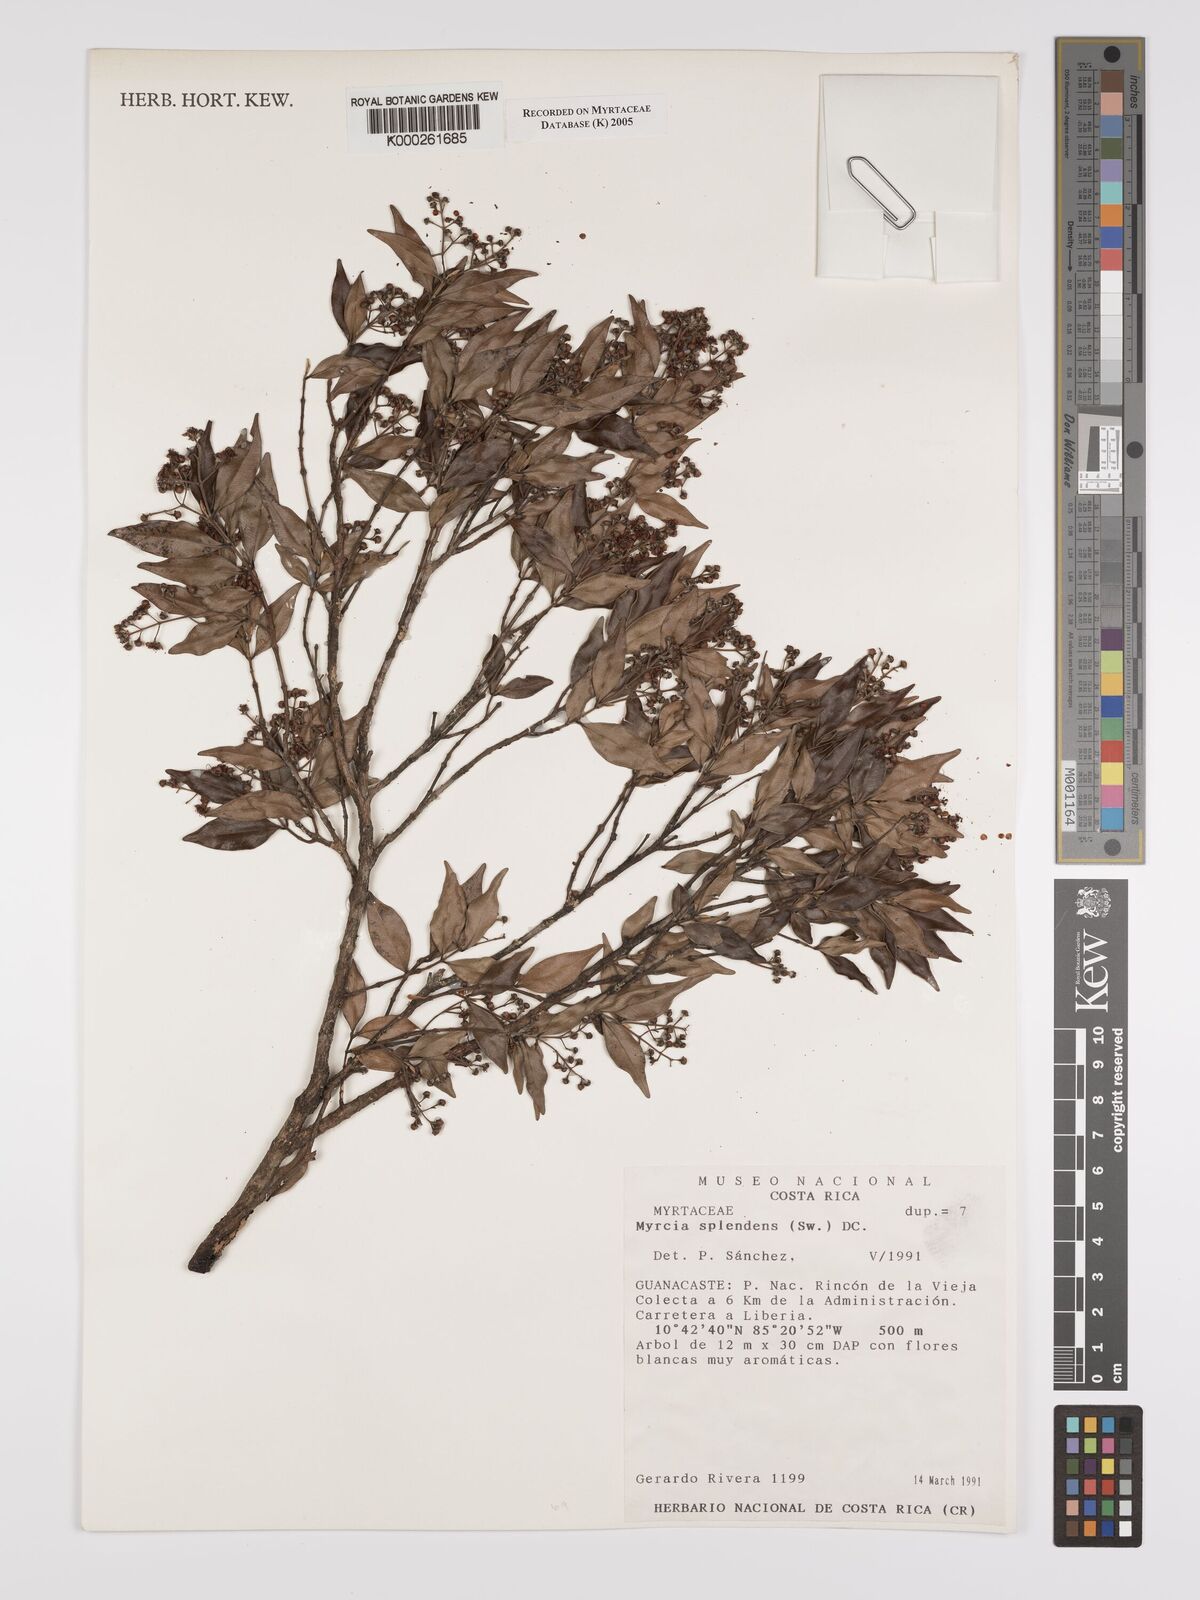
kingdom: Plantae
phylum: Tracheophyta
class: Magnoliopsida
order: Myrtales
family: Myrtaceae
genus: Myrcia
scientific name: Myrcia splendens
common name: Surinam cherry
